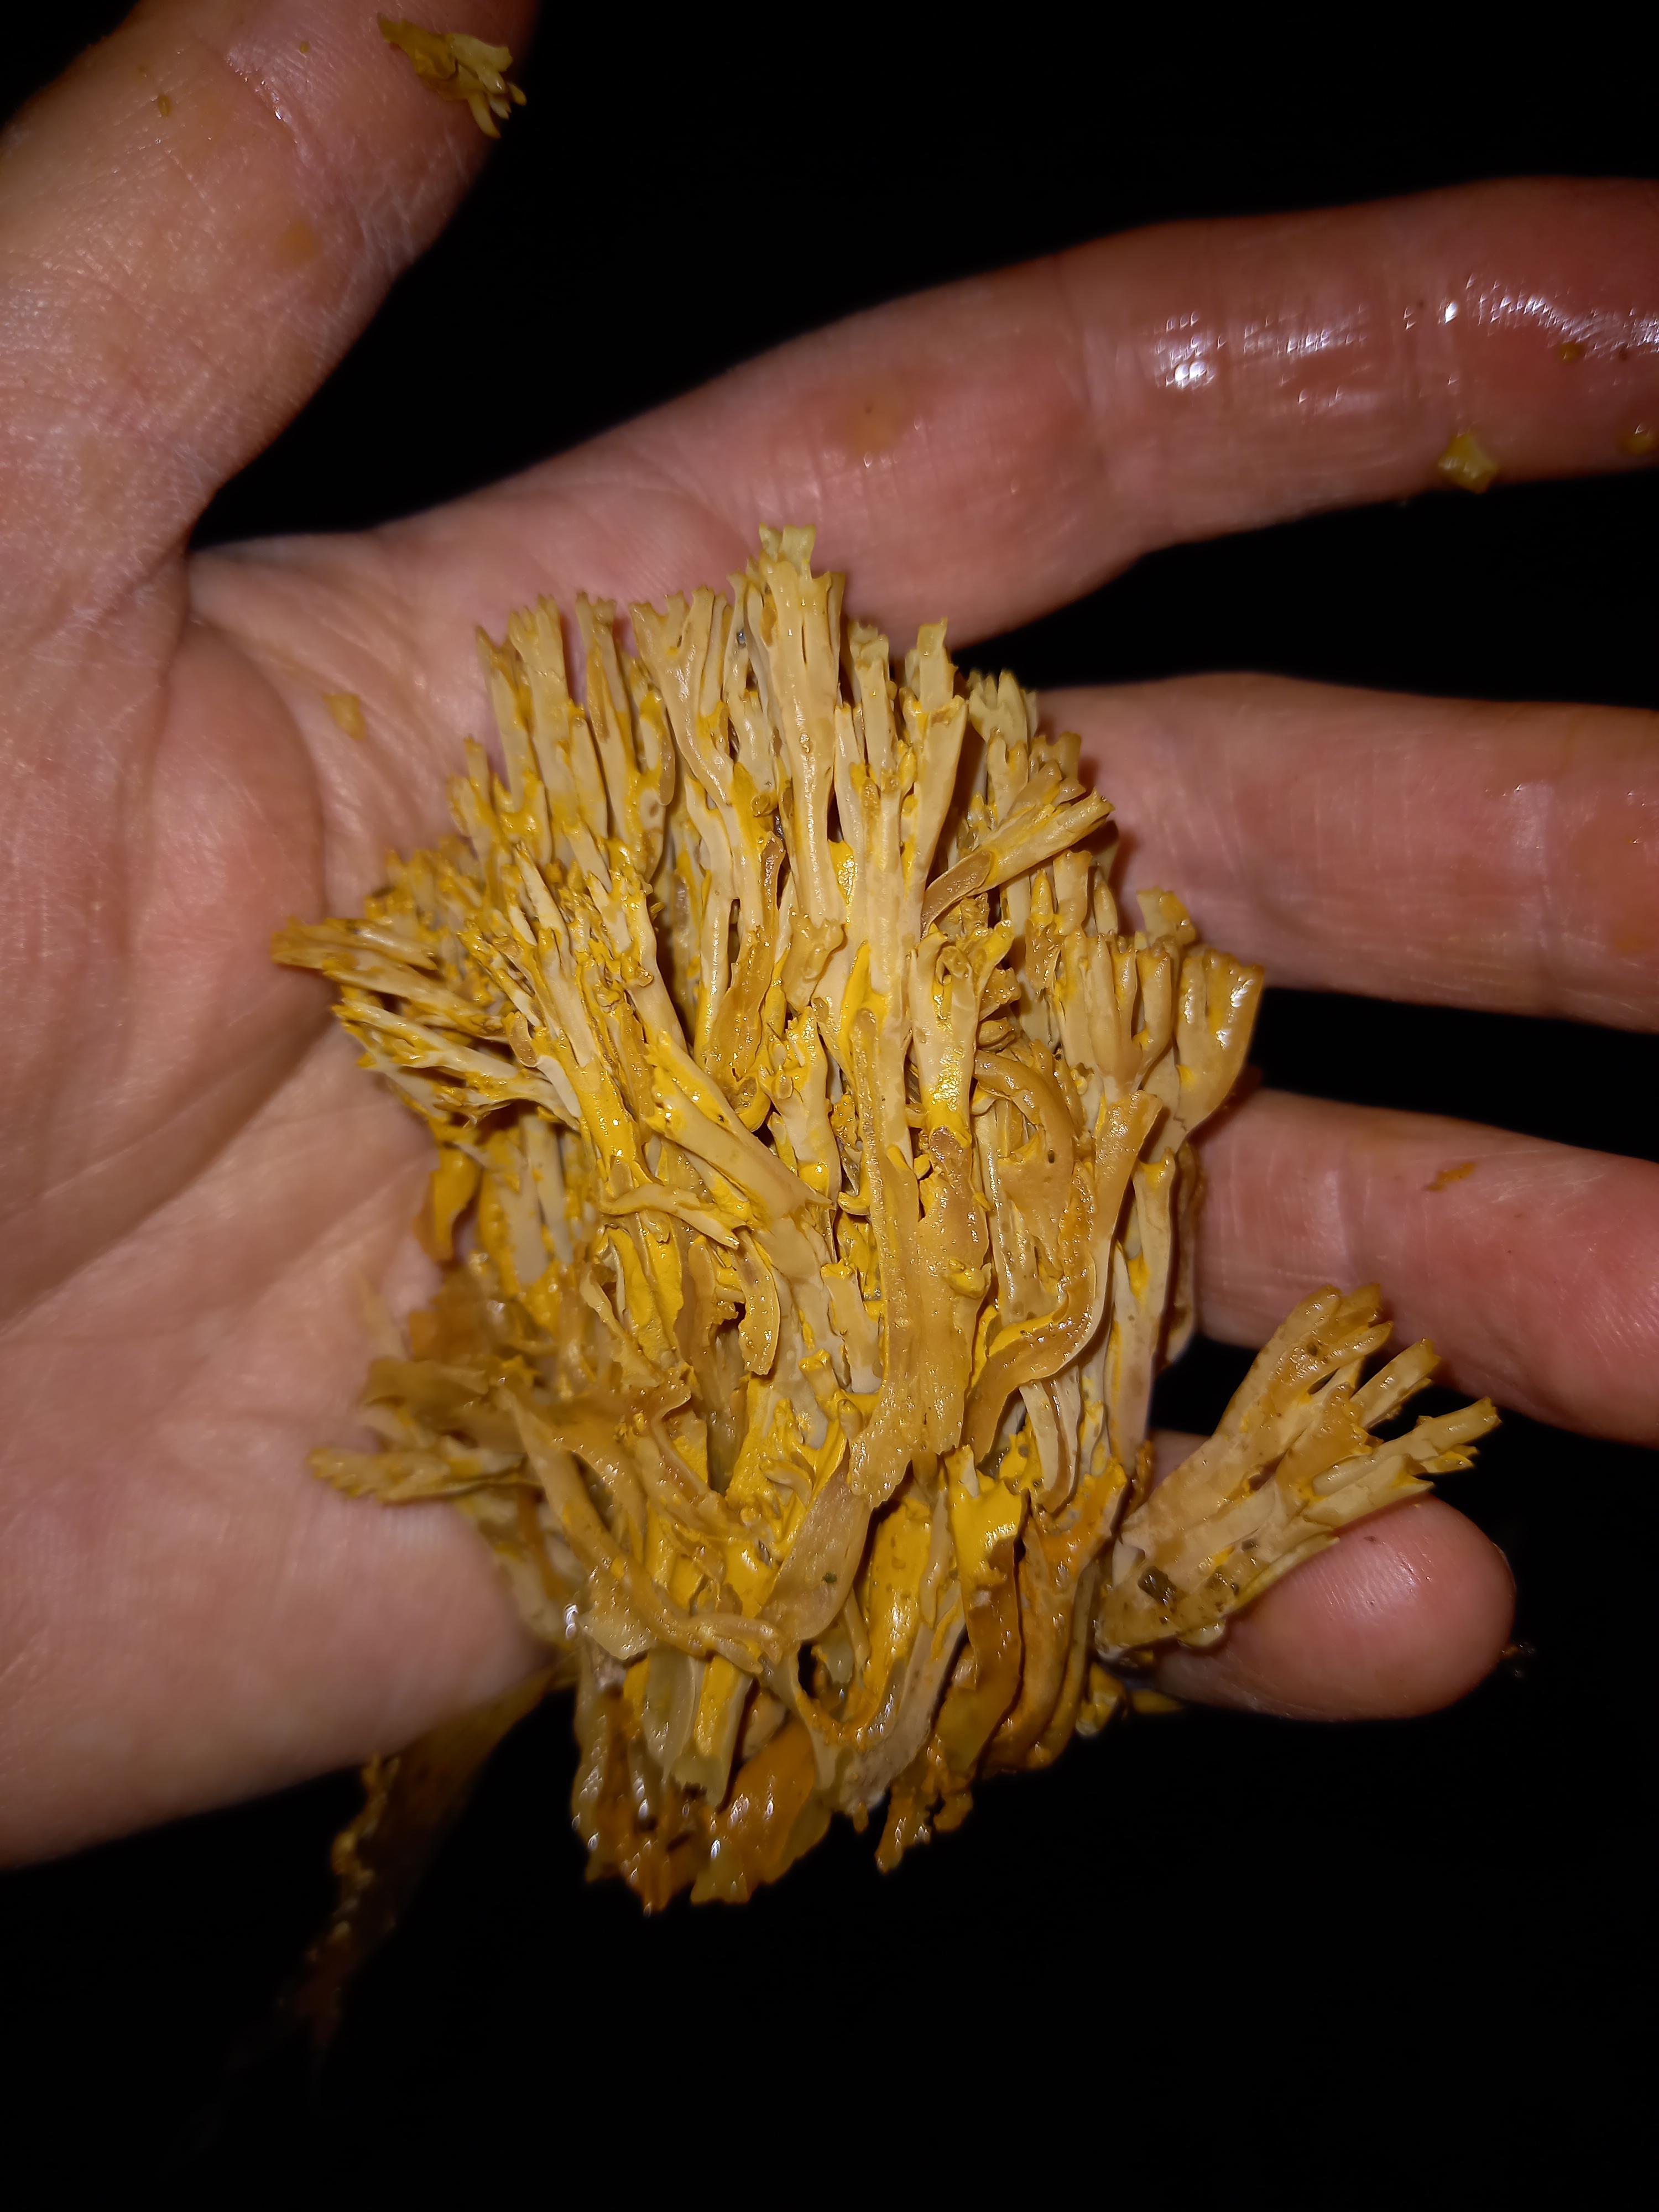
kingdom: Fungi
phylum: Basidiomycota
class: Agaricomycetes
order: Gomphales
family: Gomphaceae
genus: Ramaria
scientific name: Ramaria
